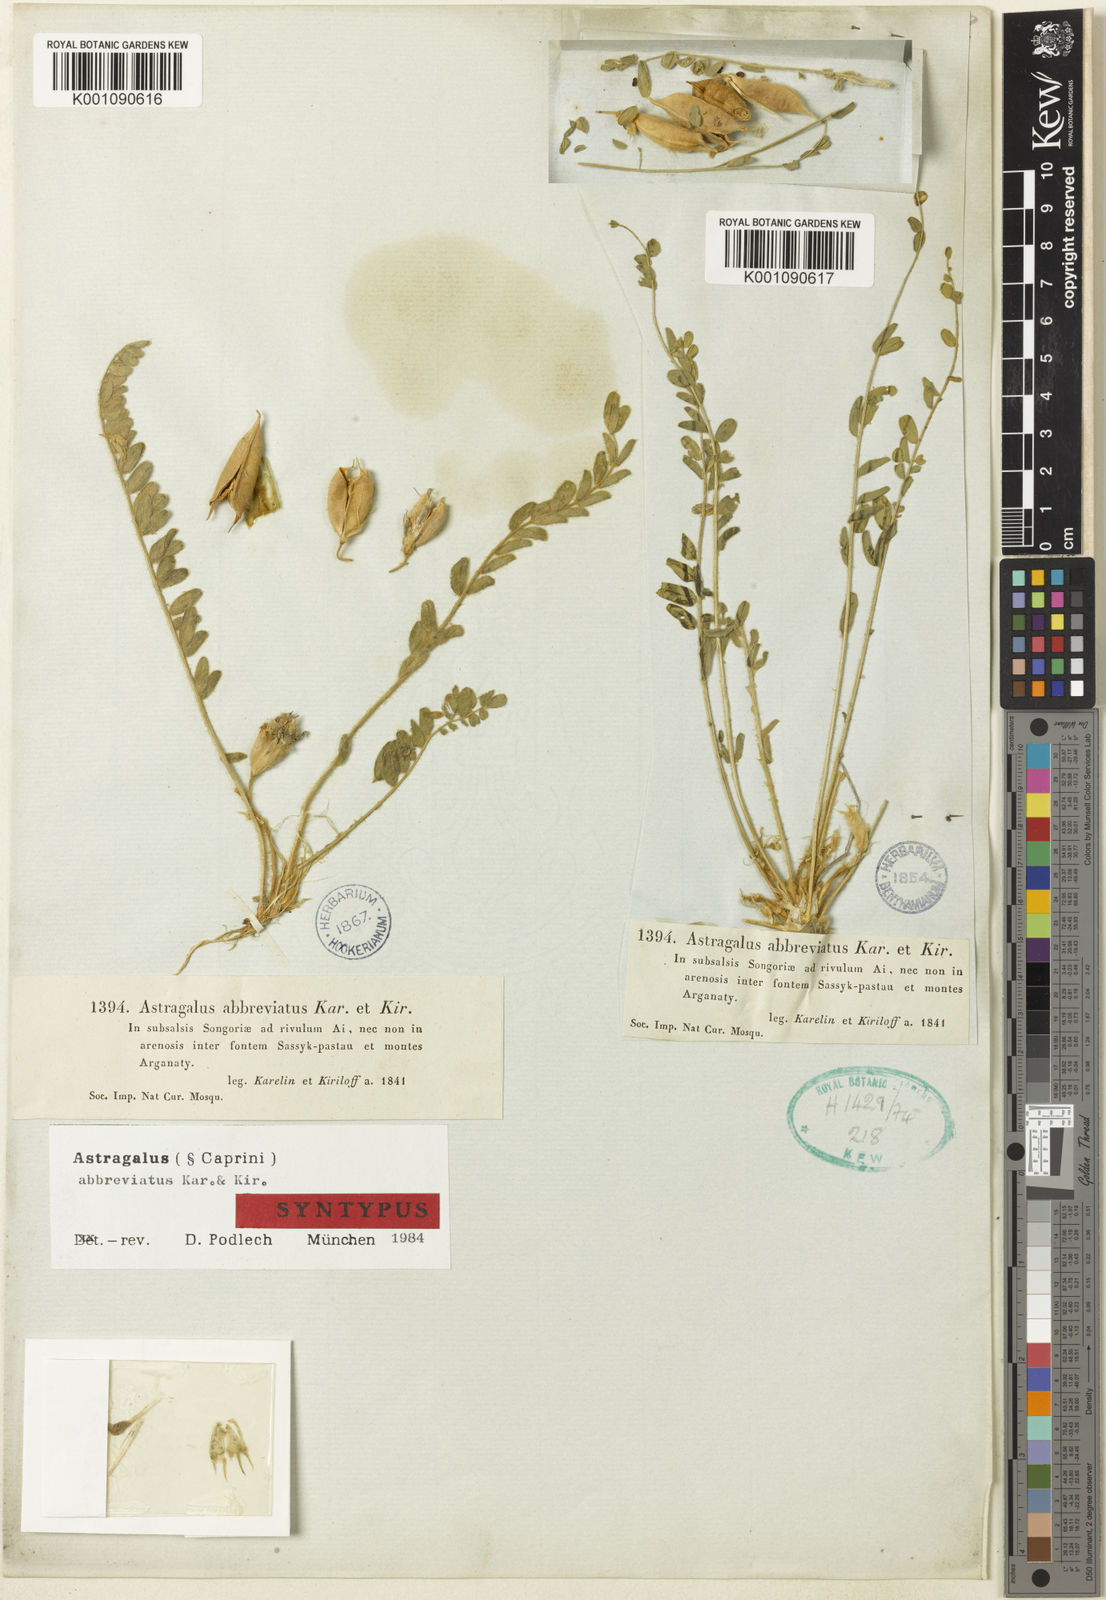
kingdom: Plantae
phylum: Tracheophyta
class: Magnoliopsida
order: Fabales
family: Fabaceae
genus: Astragalus
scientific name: Astragalus
